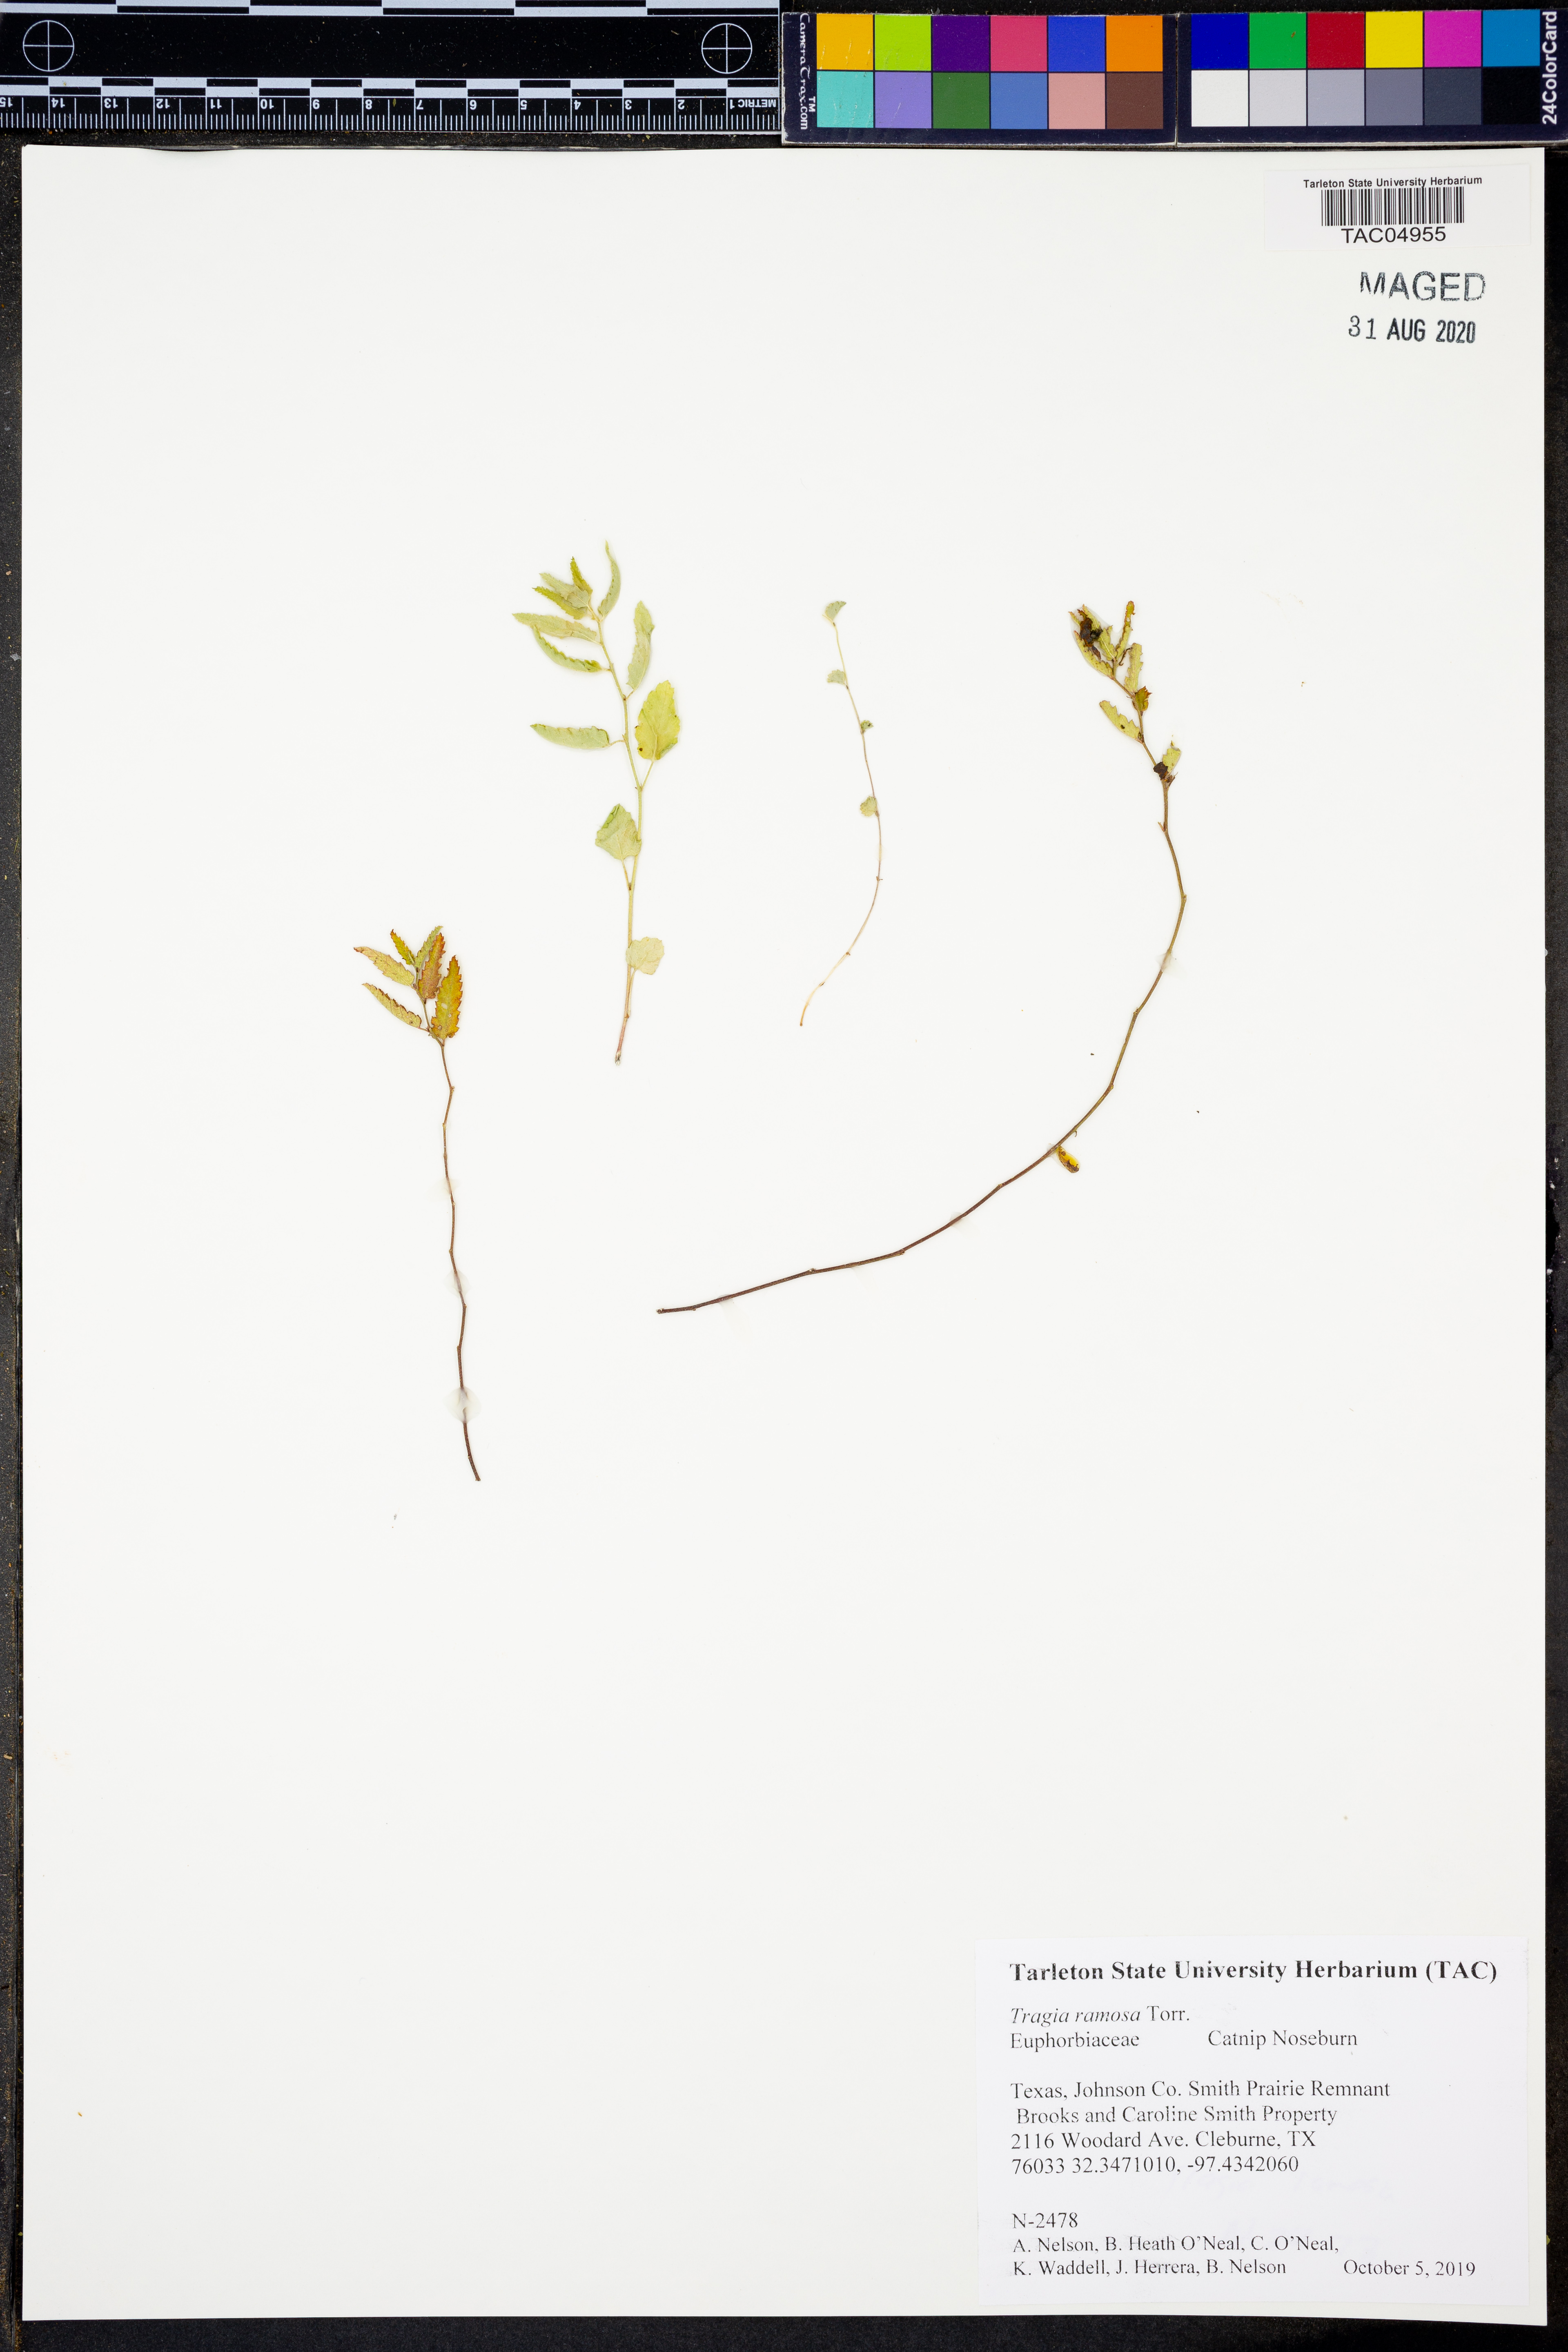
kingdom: Plantae
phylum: Tracheophyta
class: Magnoliopsida
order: Malpighiales
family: Euphorbiaceae
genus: Tragia
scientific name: Tragia ramosa
